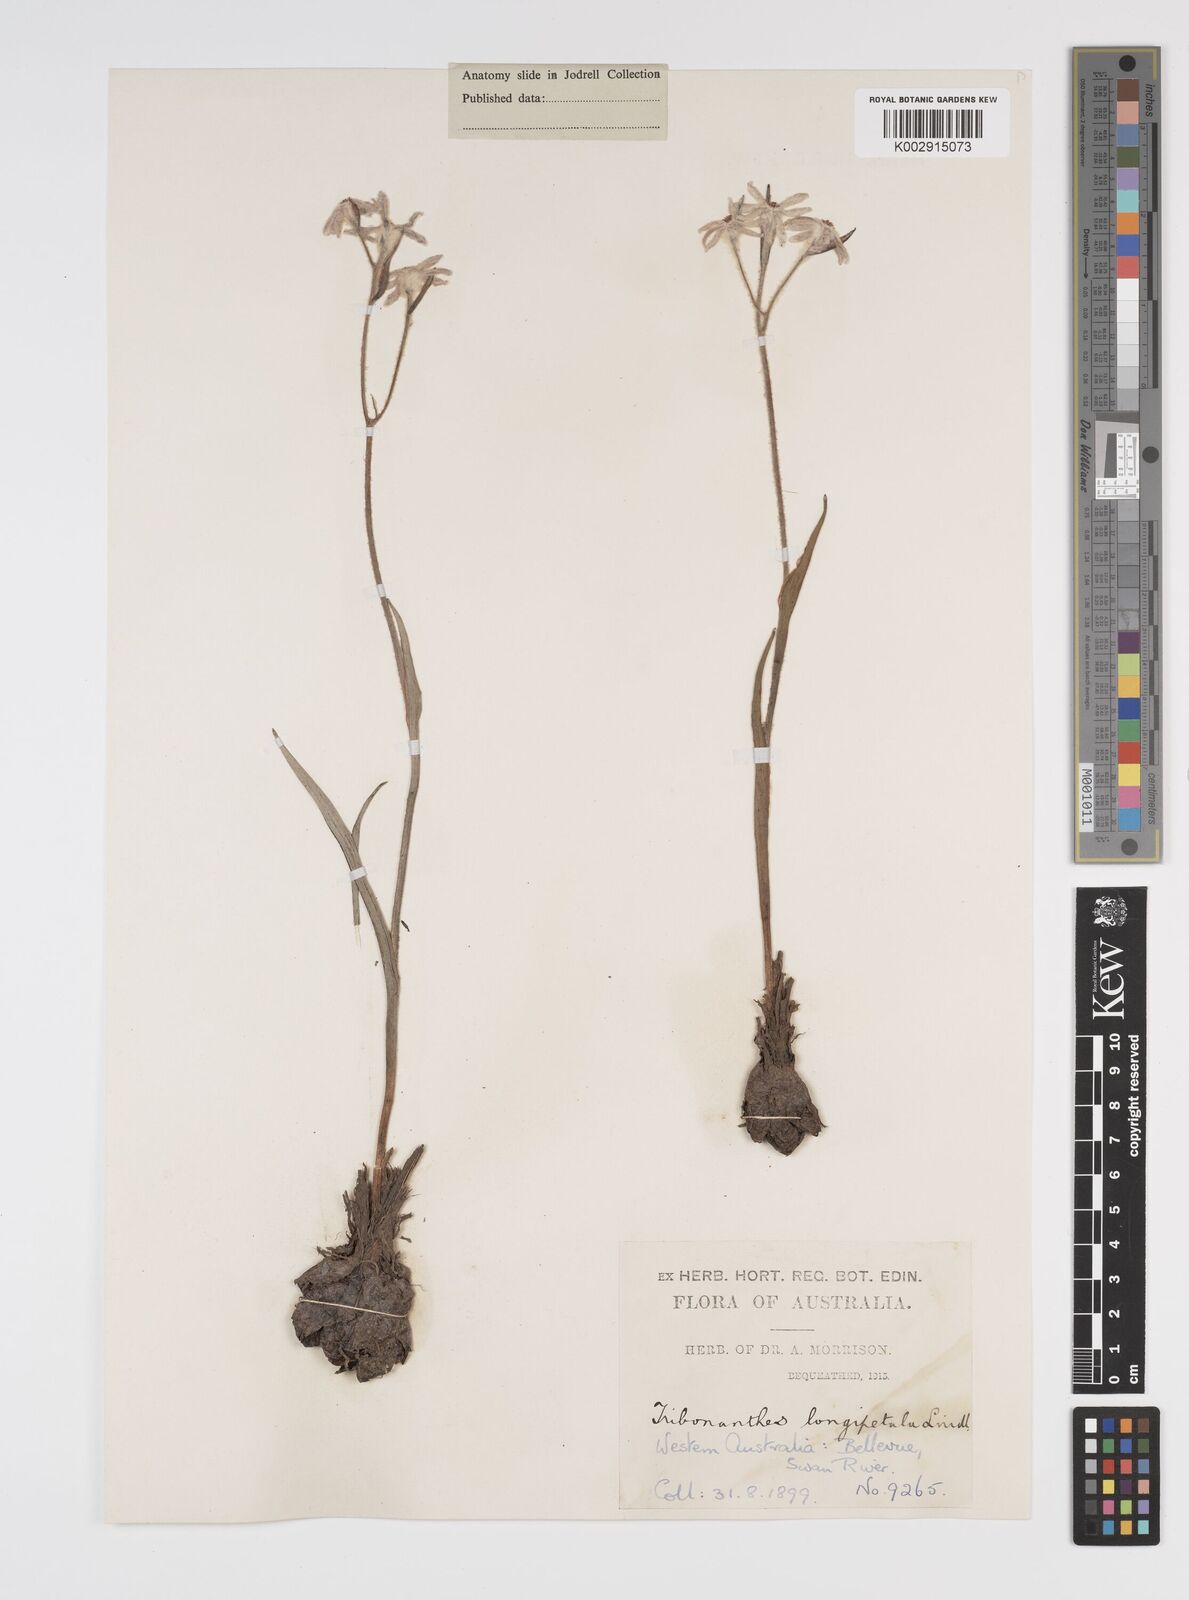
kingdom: Plantae
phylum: Tracheophyta
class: Liliopsida
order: Commelinales
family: Haemodoraceae
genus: Tribonanthes
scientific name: Tribonanthes longipetala
